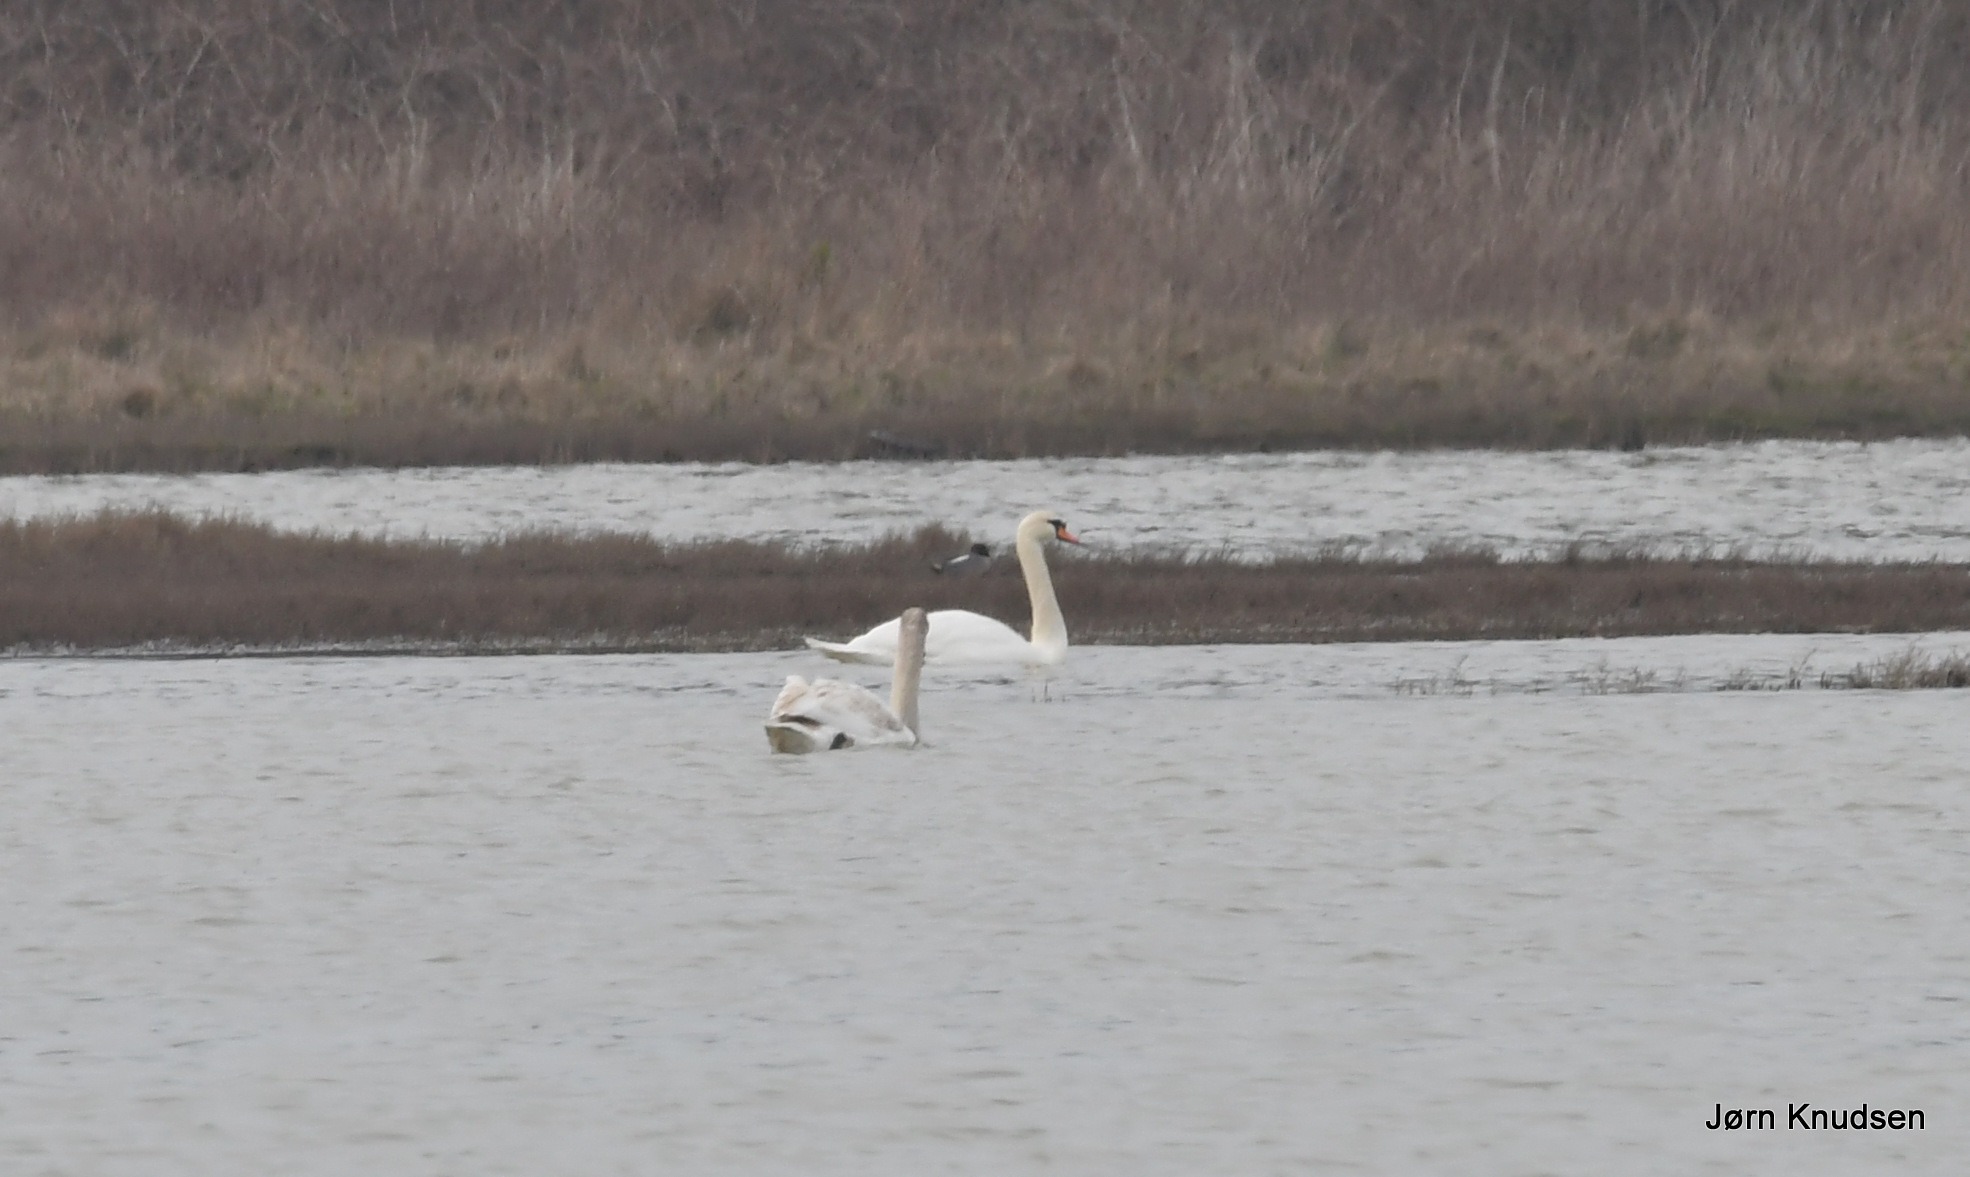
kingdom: Animalia
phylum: Chordata
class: Aves
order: Anseriformes
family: Anatidae
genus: Cygnus
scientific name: Cygnus olor
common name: Knopsvane
